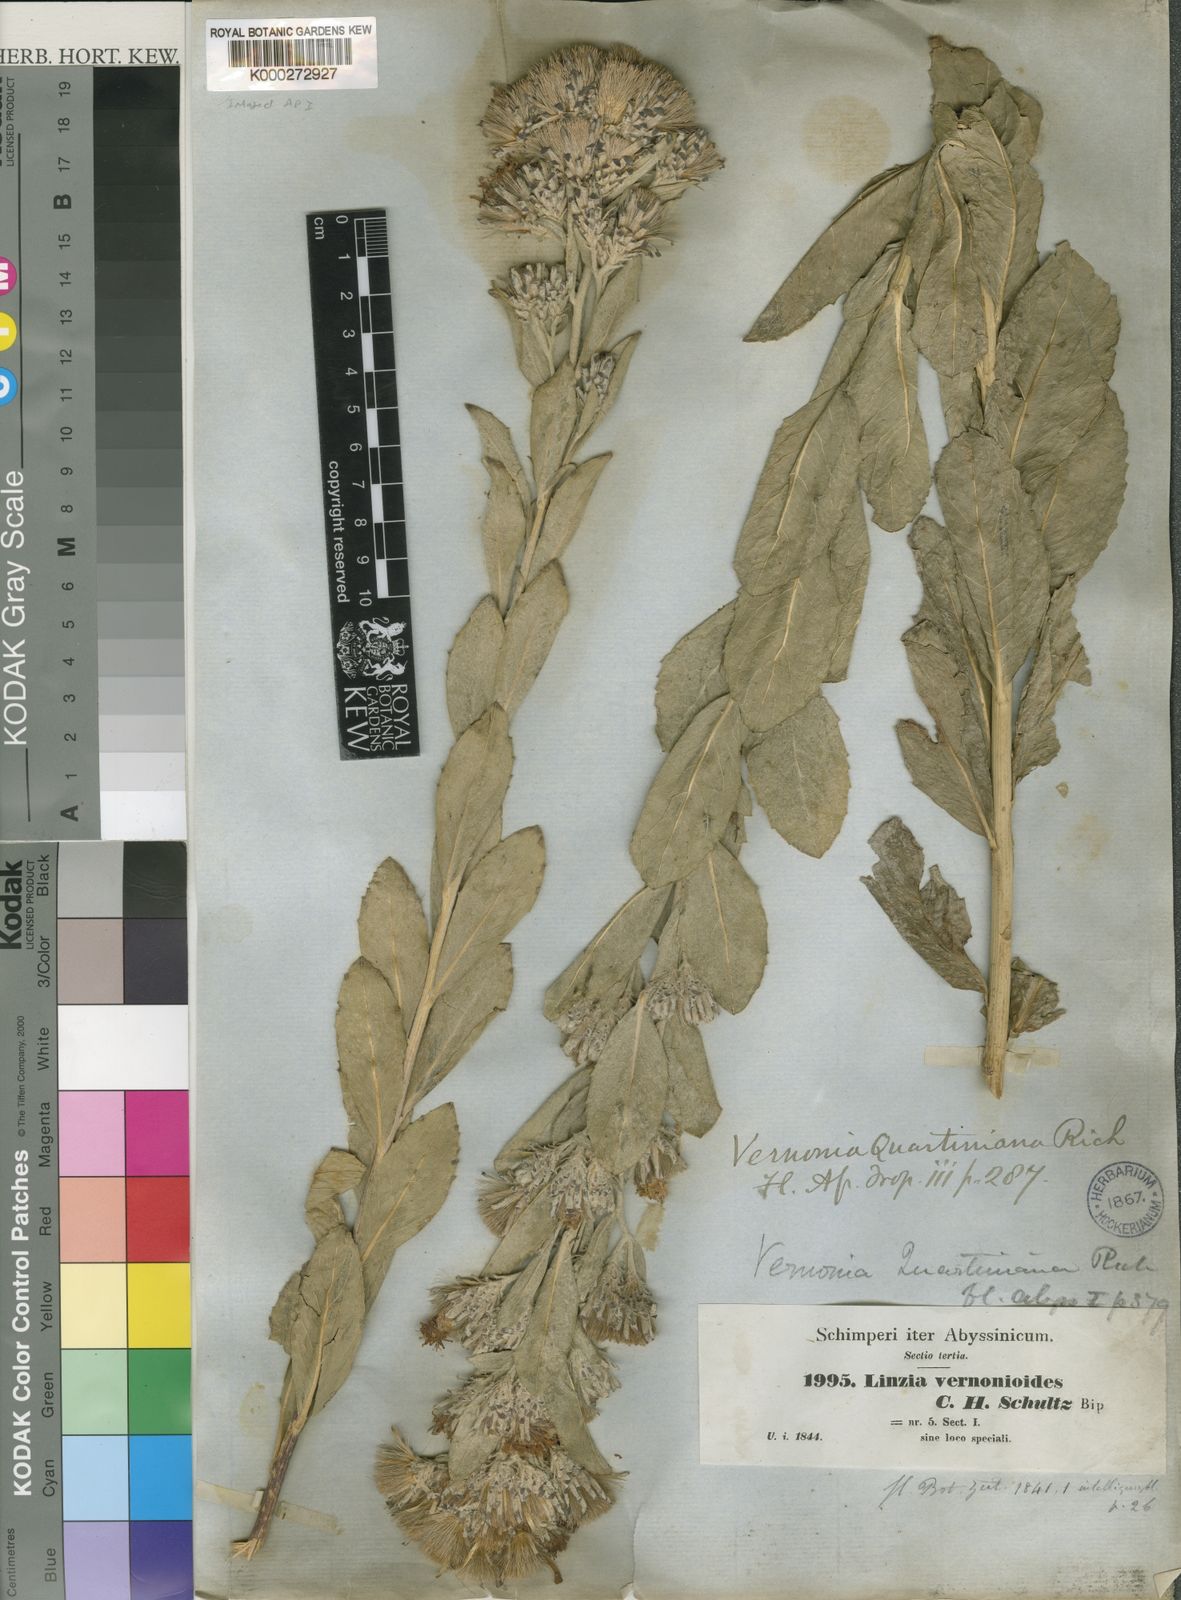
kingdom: Plantae
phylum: Tracheophyta
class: Magnoliopsida
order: Asterales
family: Asteraceae
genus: Vernonia
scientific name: Vernonia congolensis
